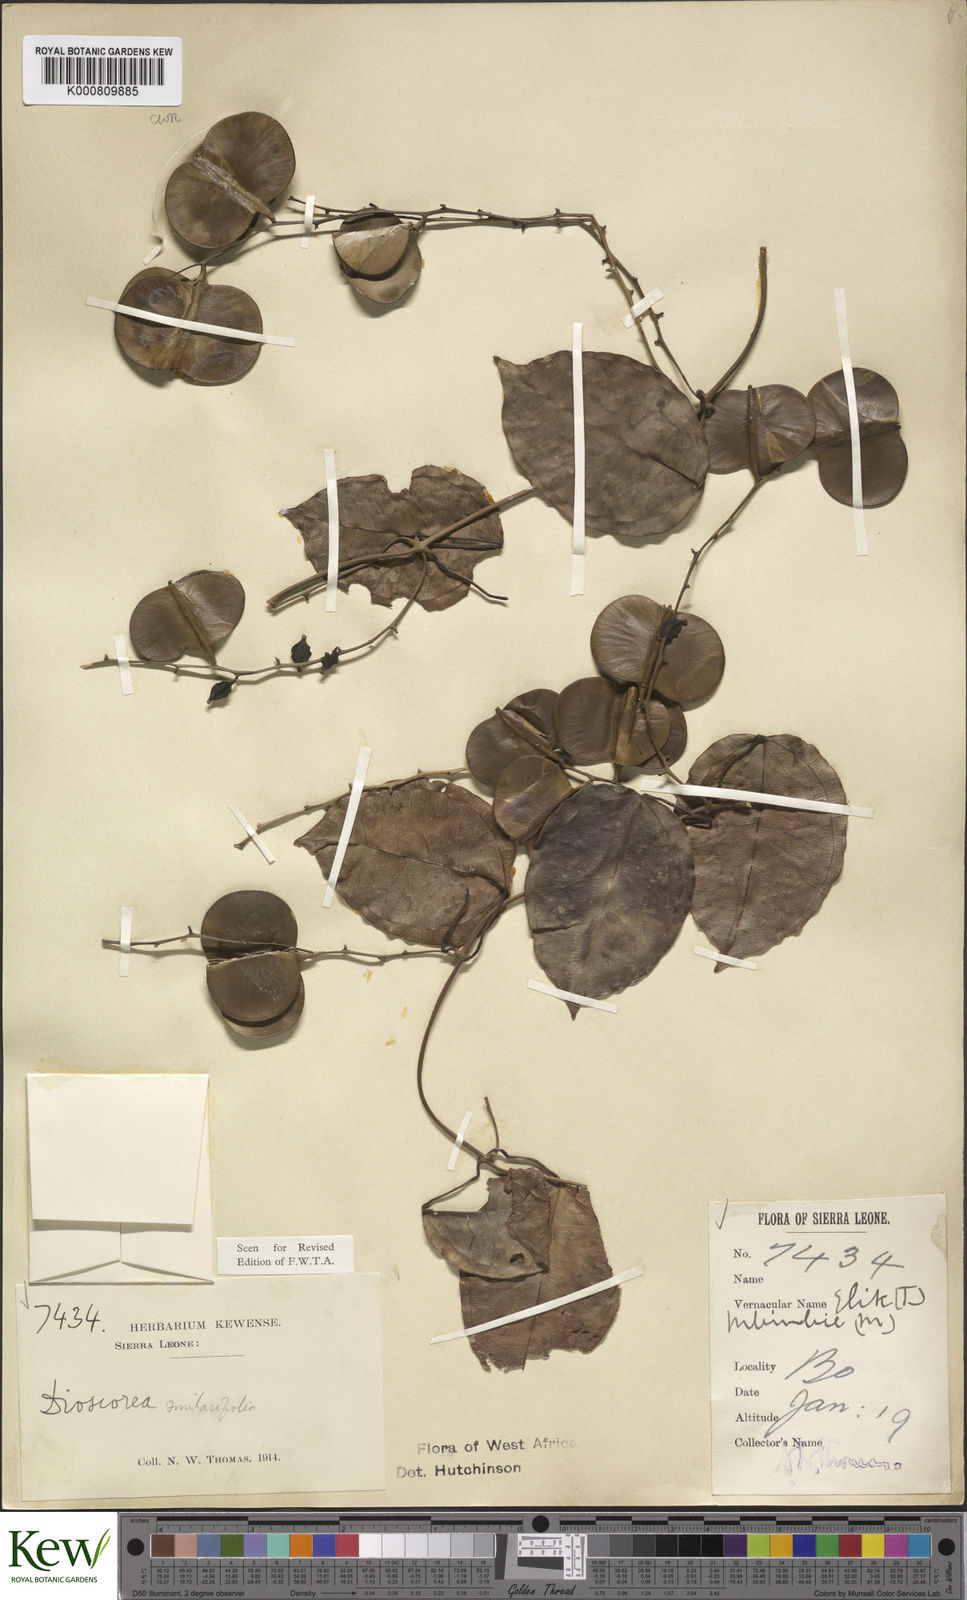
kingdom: Plantae
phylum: Tracheophyta
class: Liliopsida
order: Dioscoreales
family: Dioscoreaceae
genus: Dioscorea
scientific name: Dioscorea smilacifolia
